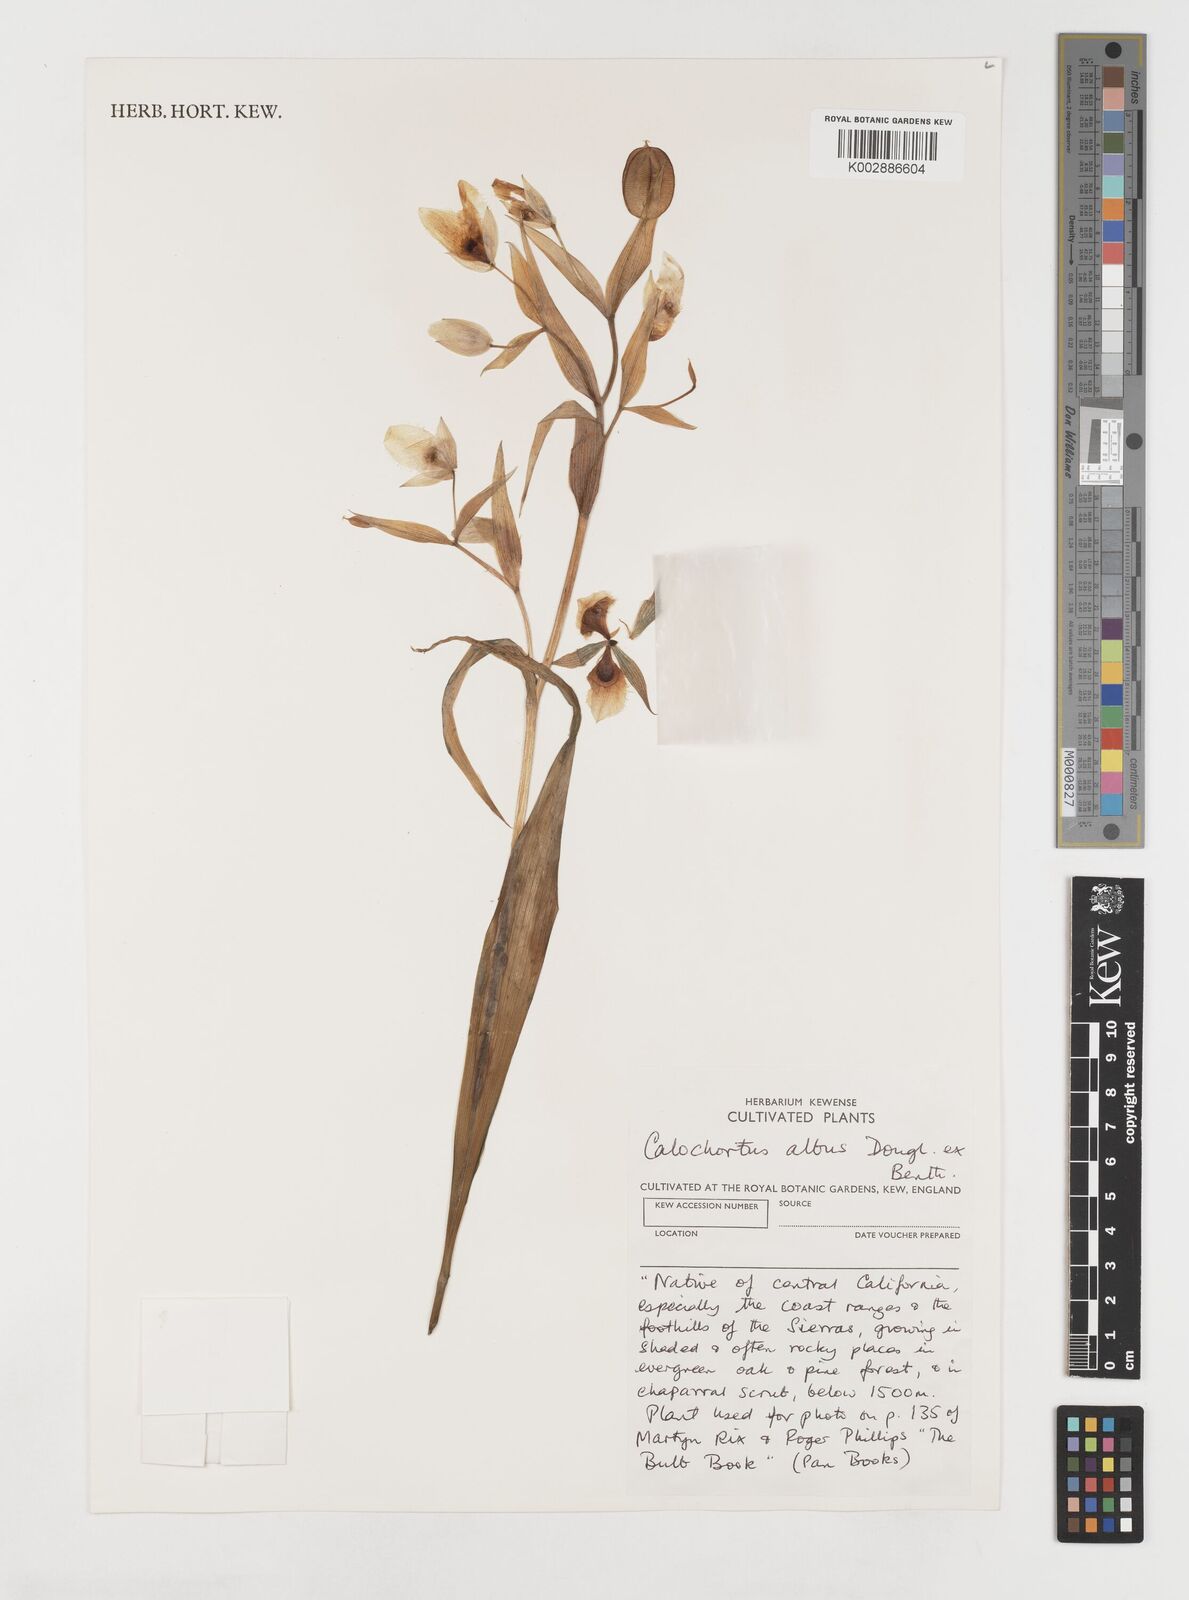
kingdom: Plantae
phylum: Tracheophyta
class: Liliopsida
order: Liliales
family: Liliaceae
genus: Calochortus
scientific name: Calochortus albus
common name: Fairy-lantern
